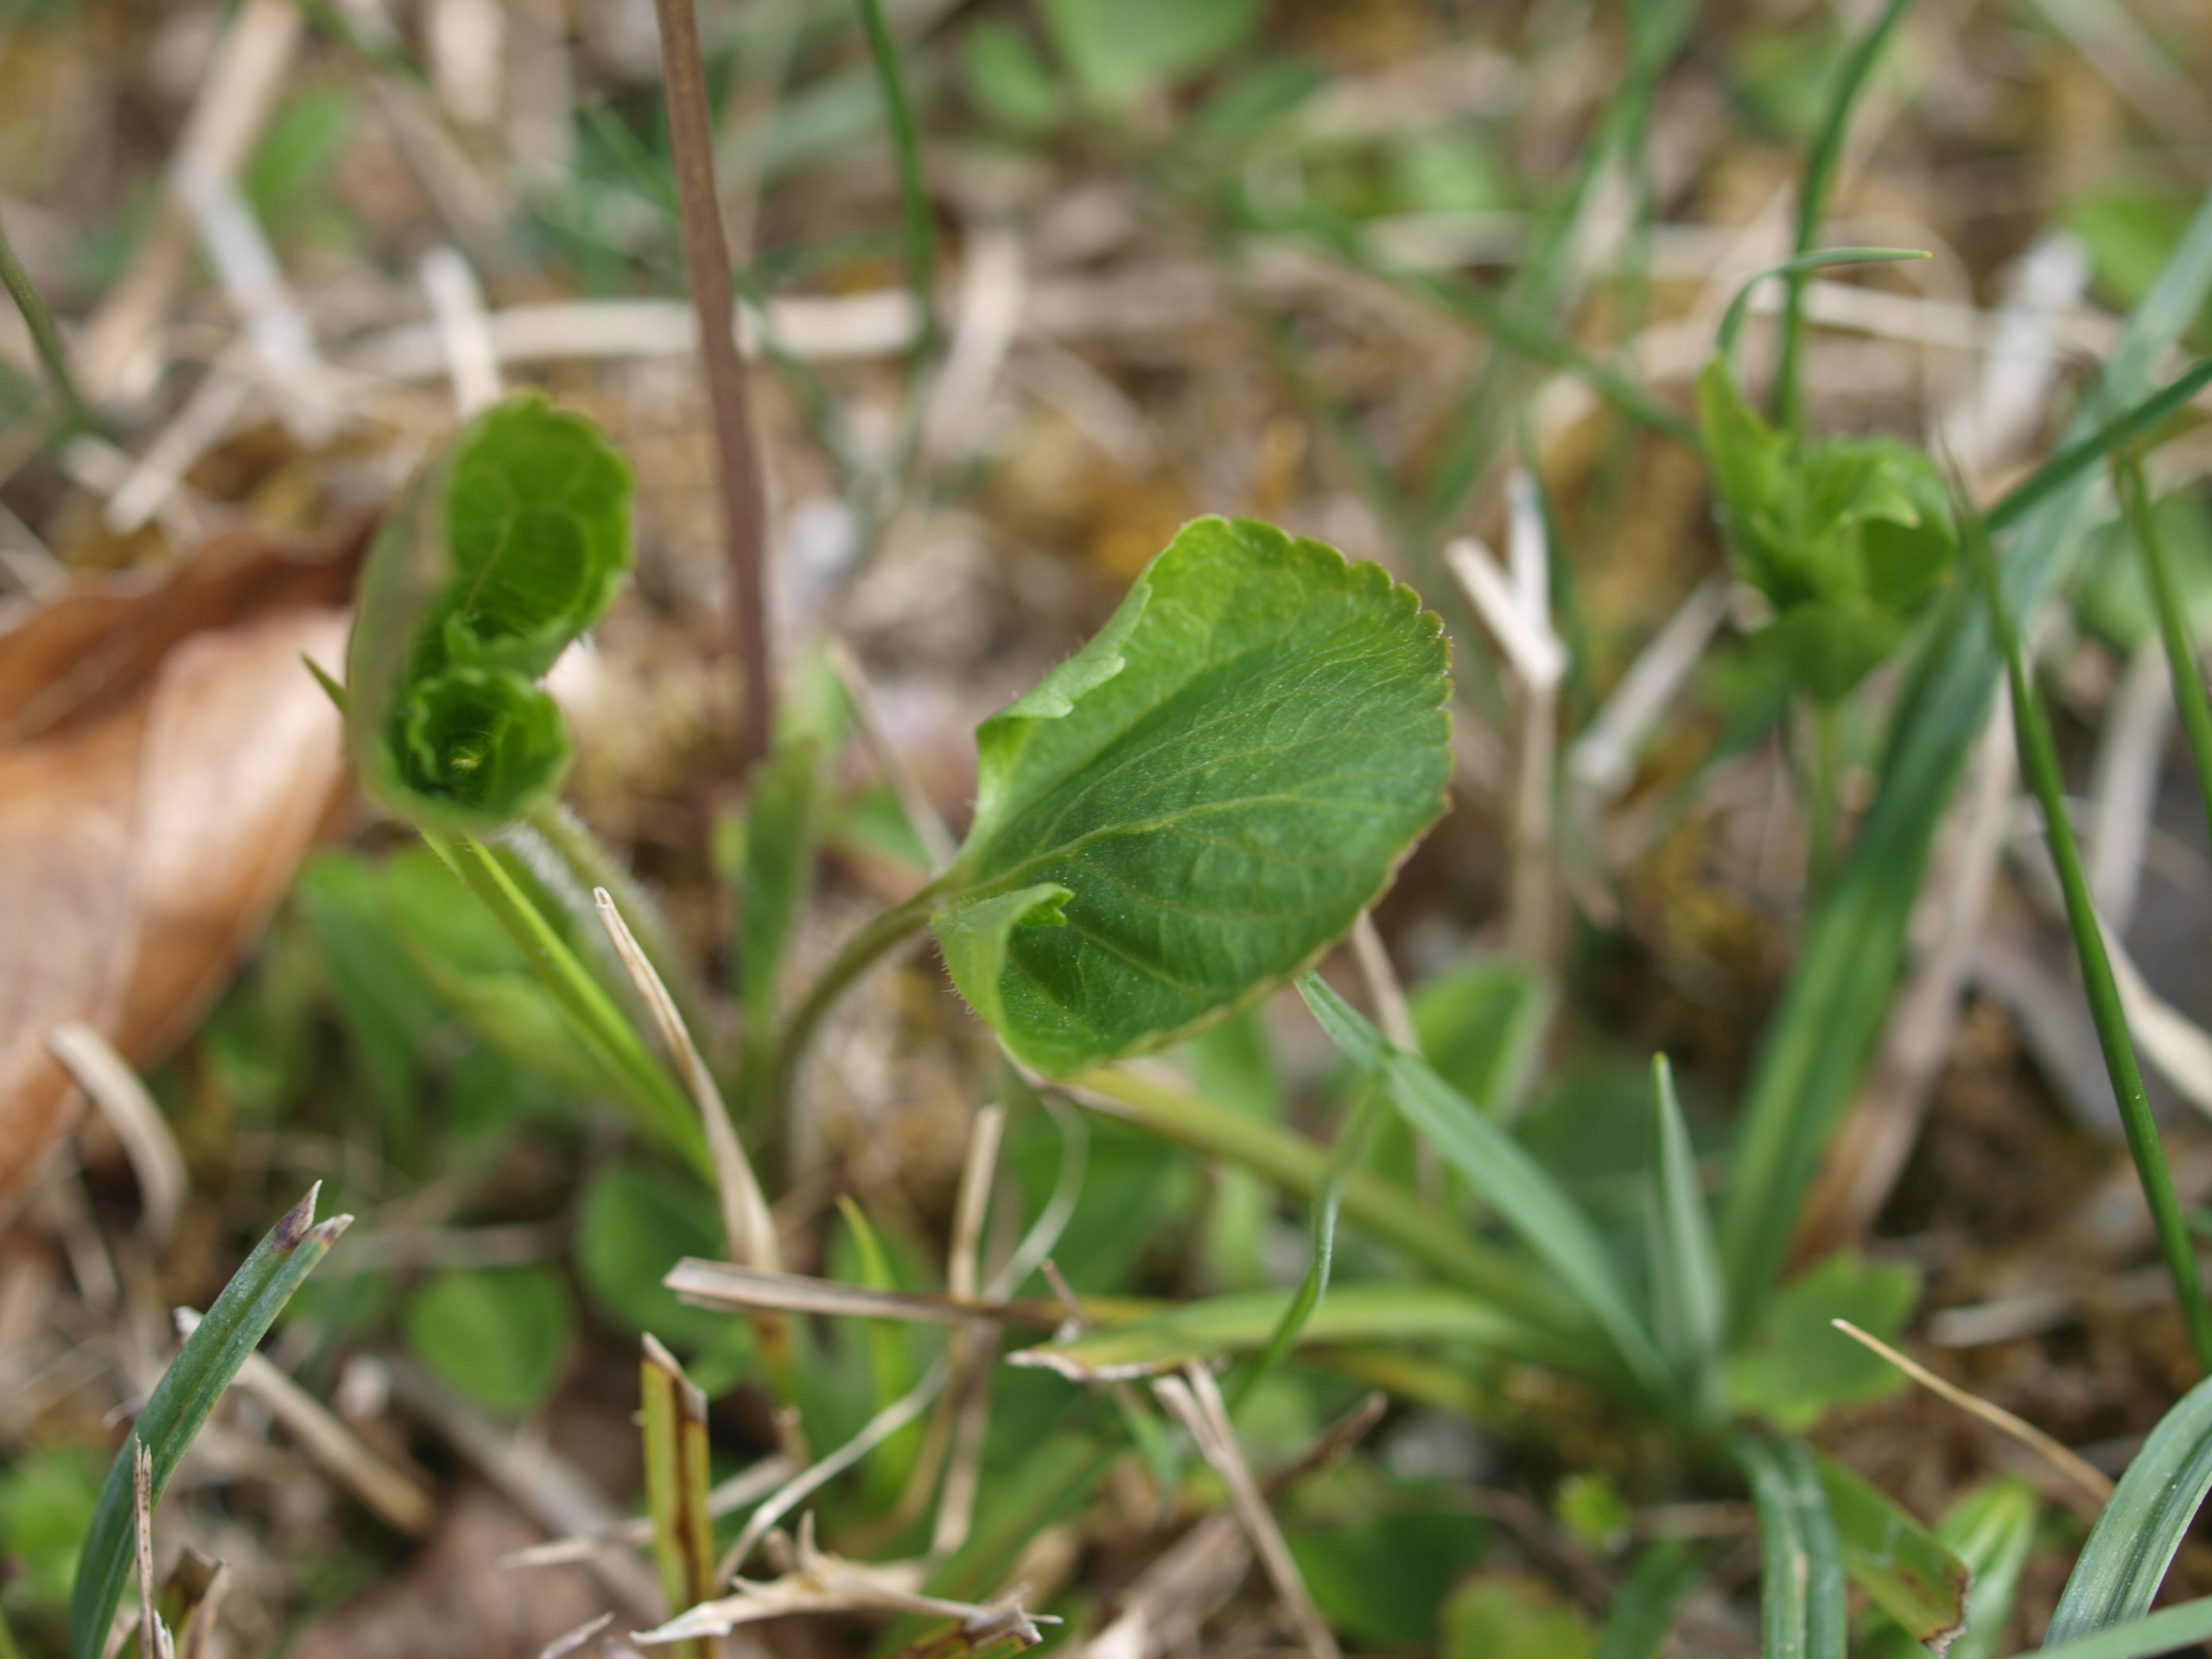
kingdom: Plantae
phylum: Tracheophyta
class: Magnoliopsida
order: Malpighiales
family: Violaceae
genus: Viola
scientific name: Viola mirabilis
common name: Forskelligblomstret viol
